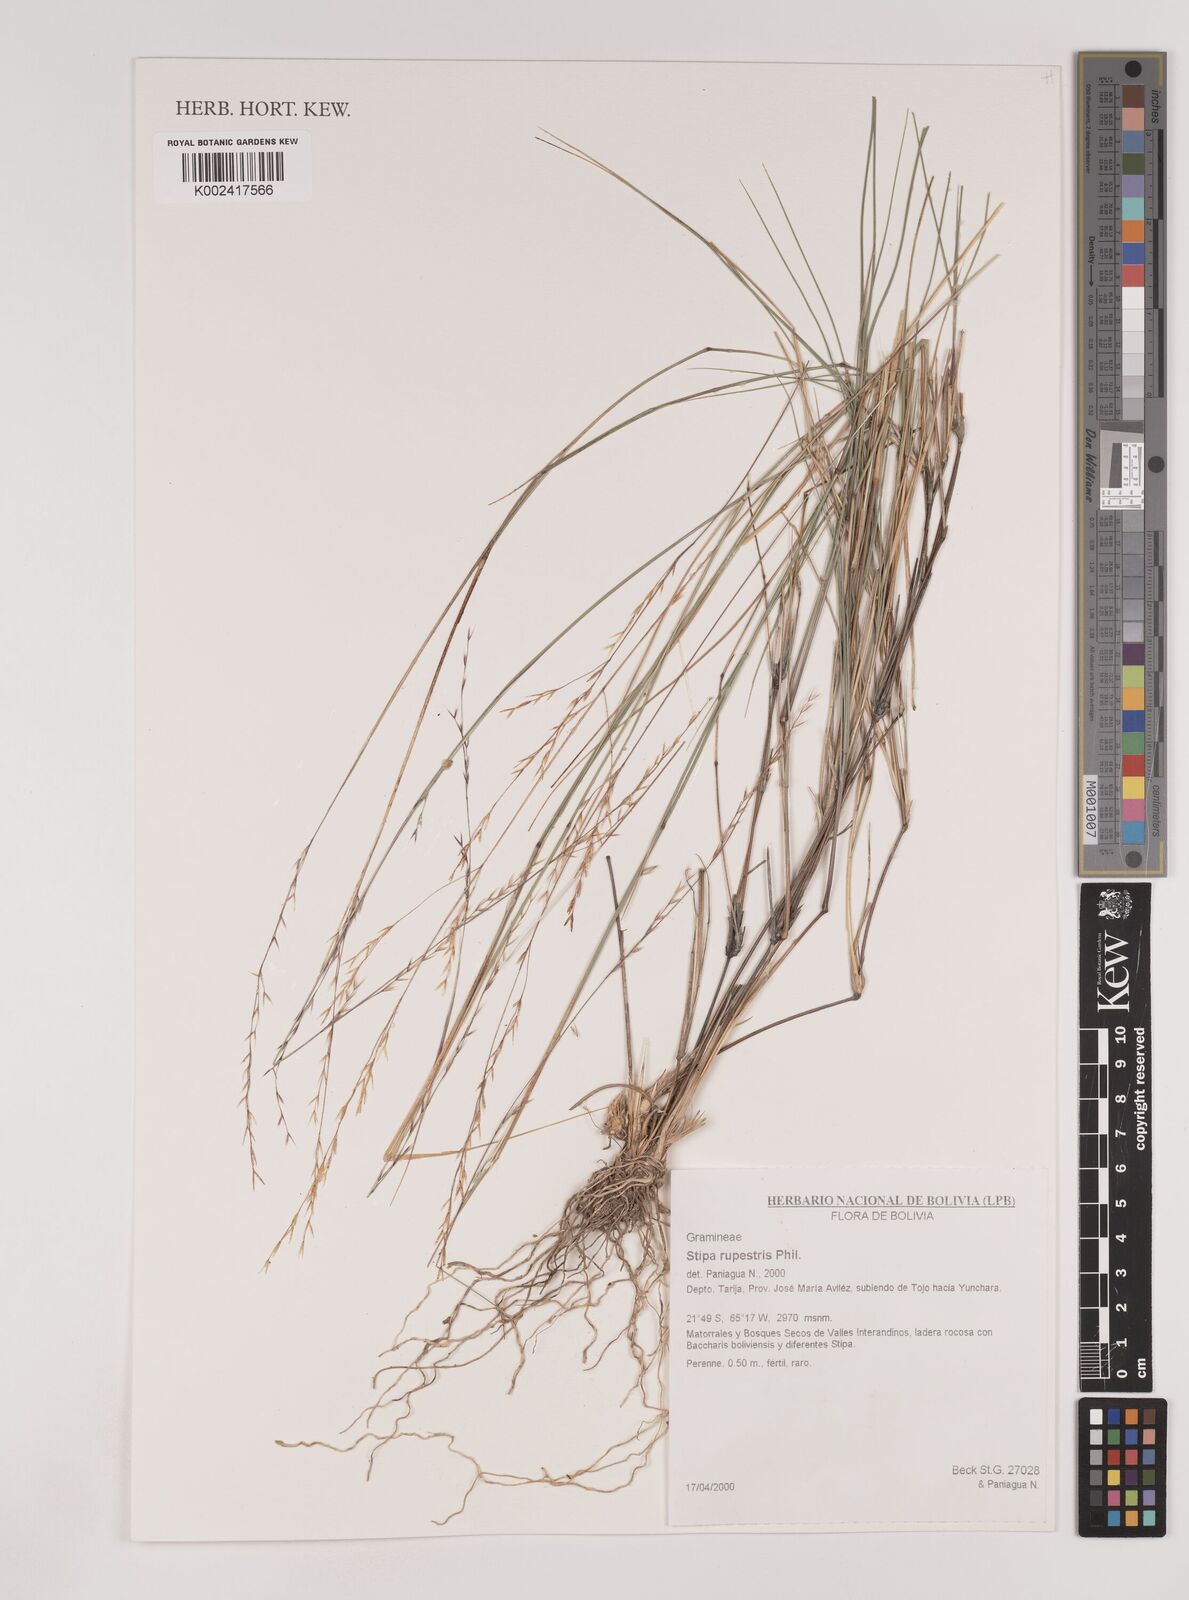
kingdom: Plantae
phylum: Tracheophyta
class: Liliopsida
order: Poales
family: Poaceae
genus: Nassella
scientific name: Nassella rupestris
